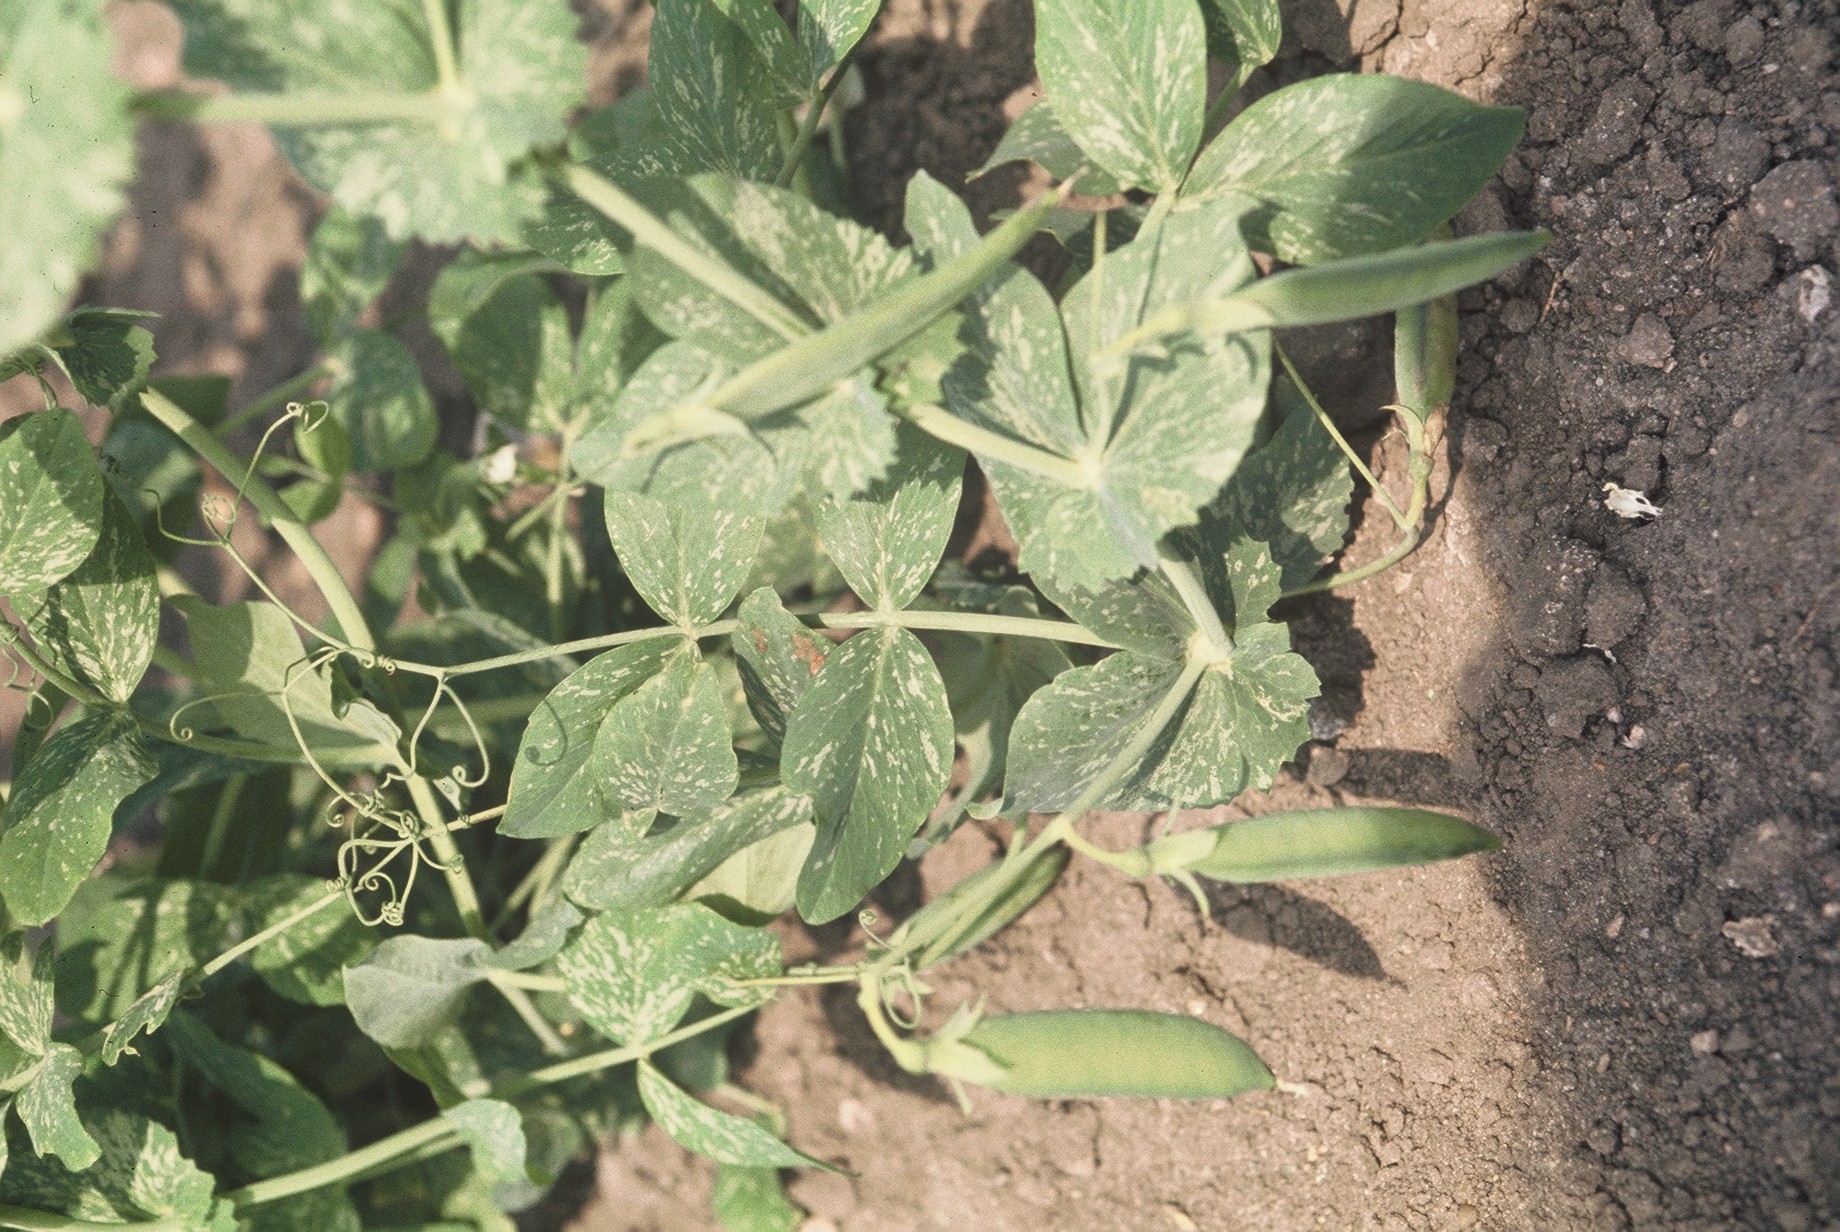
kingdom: Plantae
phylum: Tracheophyta
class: Magnoliopsida
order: Fabales
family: Fabaceae
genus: Lathyrus
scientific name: Lathyrus oleraceus
